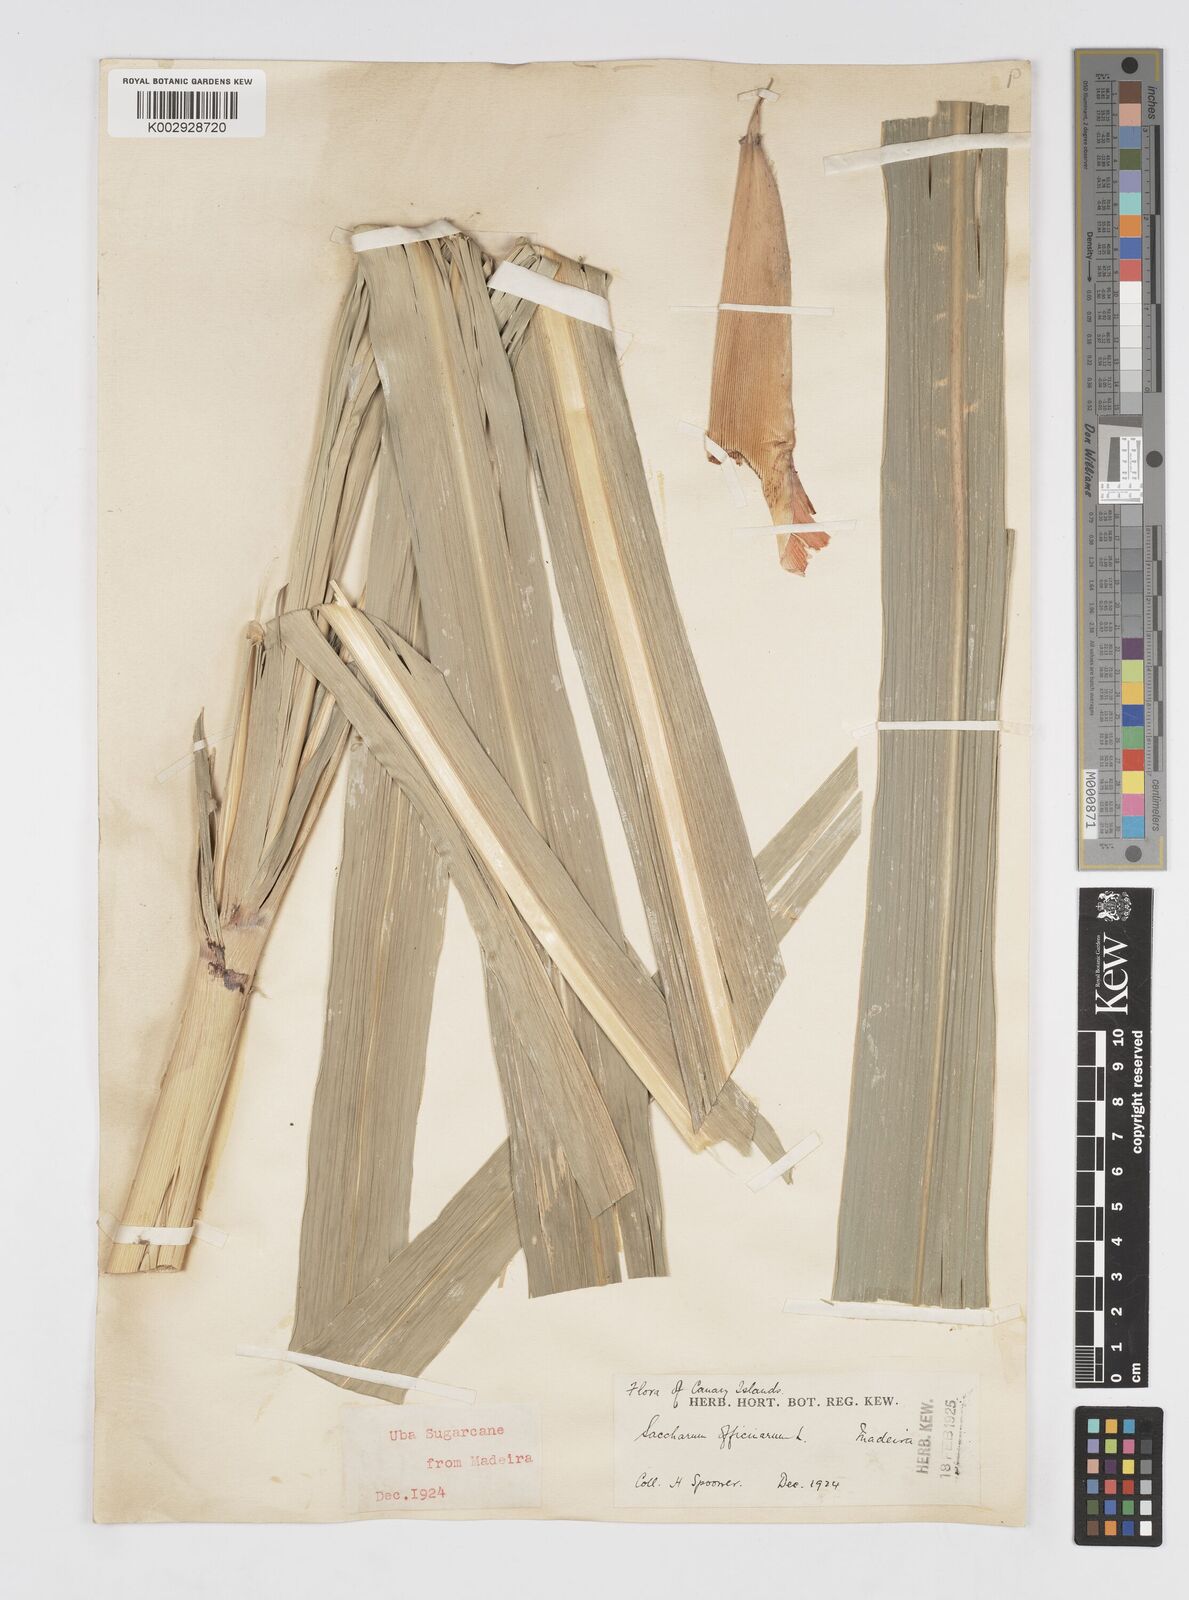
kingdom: Plantae
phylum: Tracheophyta
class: Liliopsida
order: Poales
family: Poaceae
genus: Saccharum
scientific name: Saccharum officinarum
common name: Sugarcane
